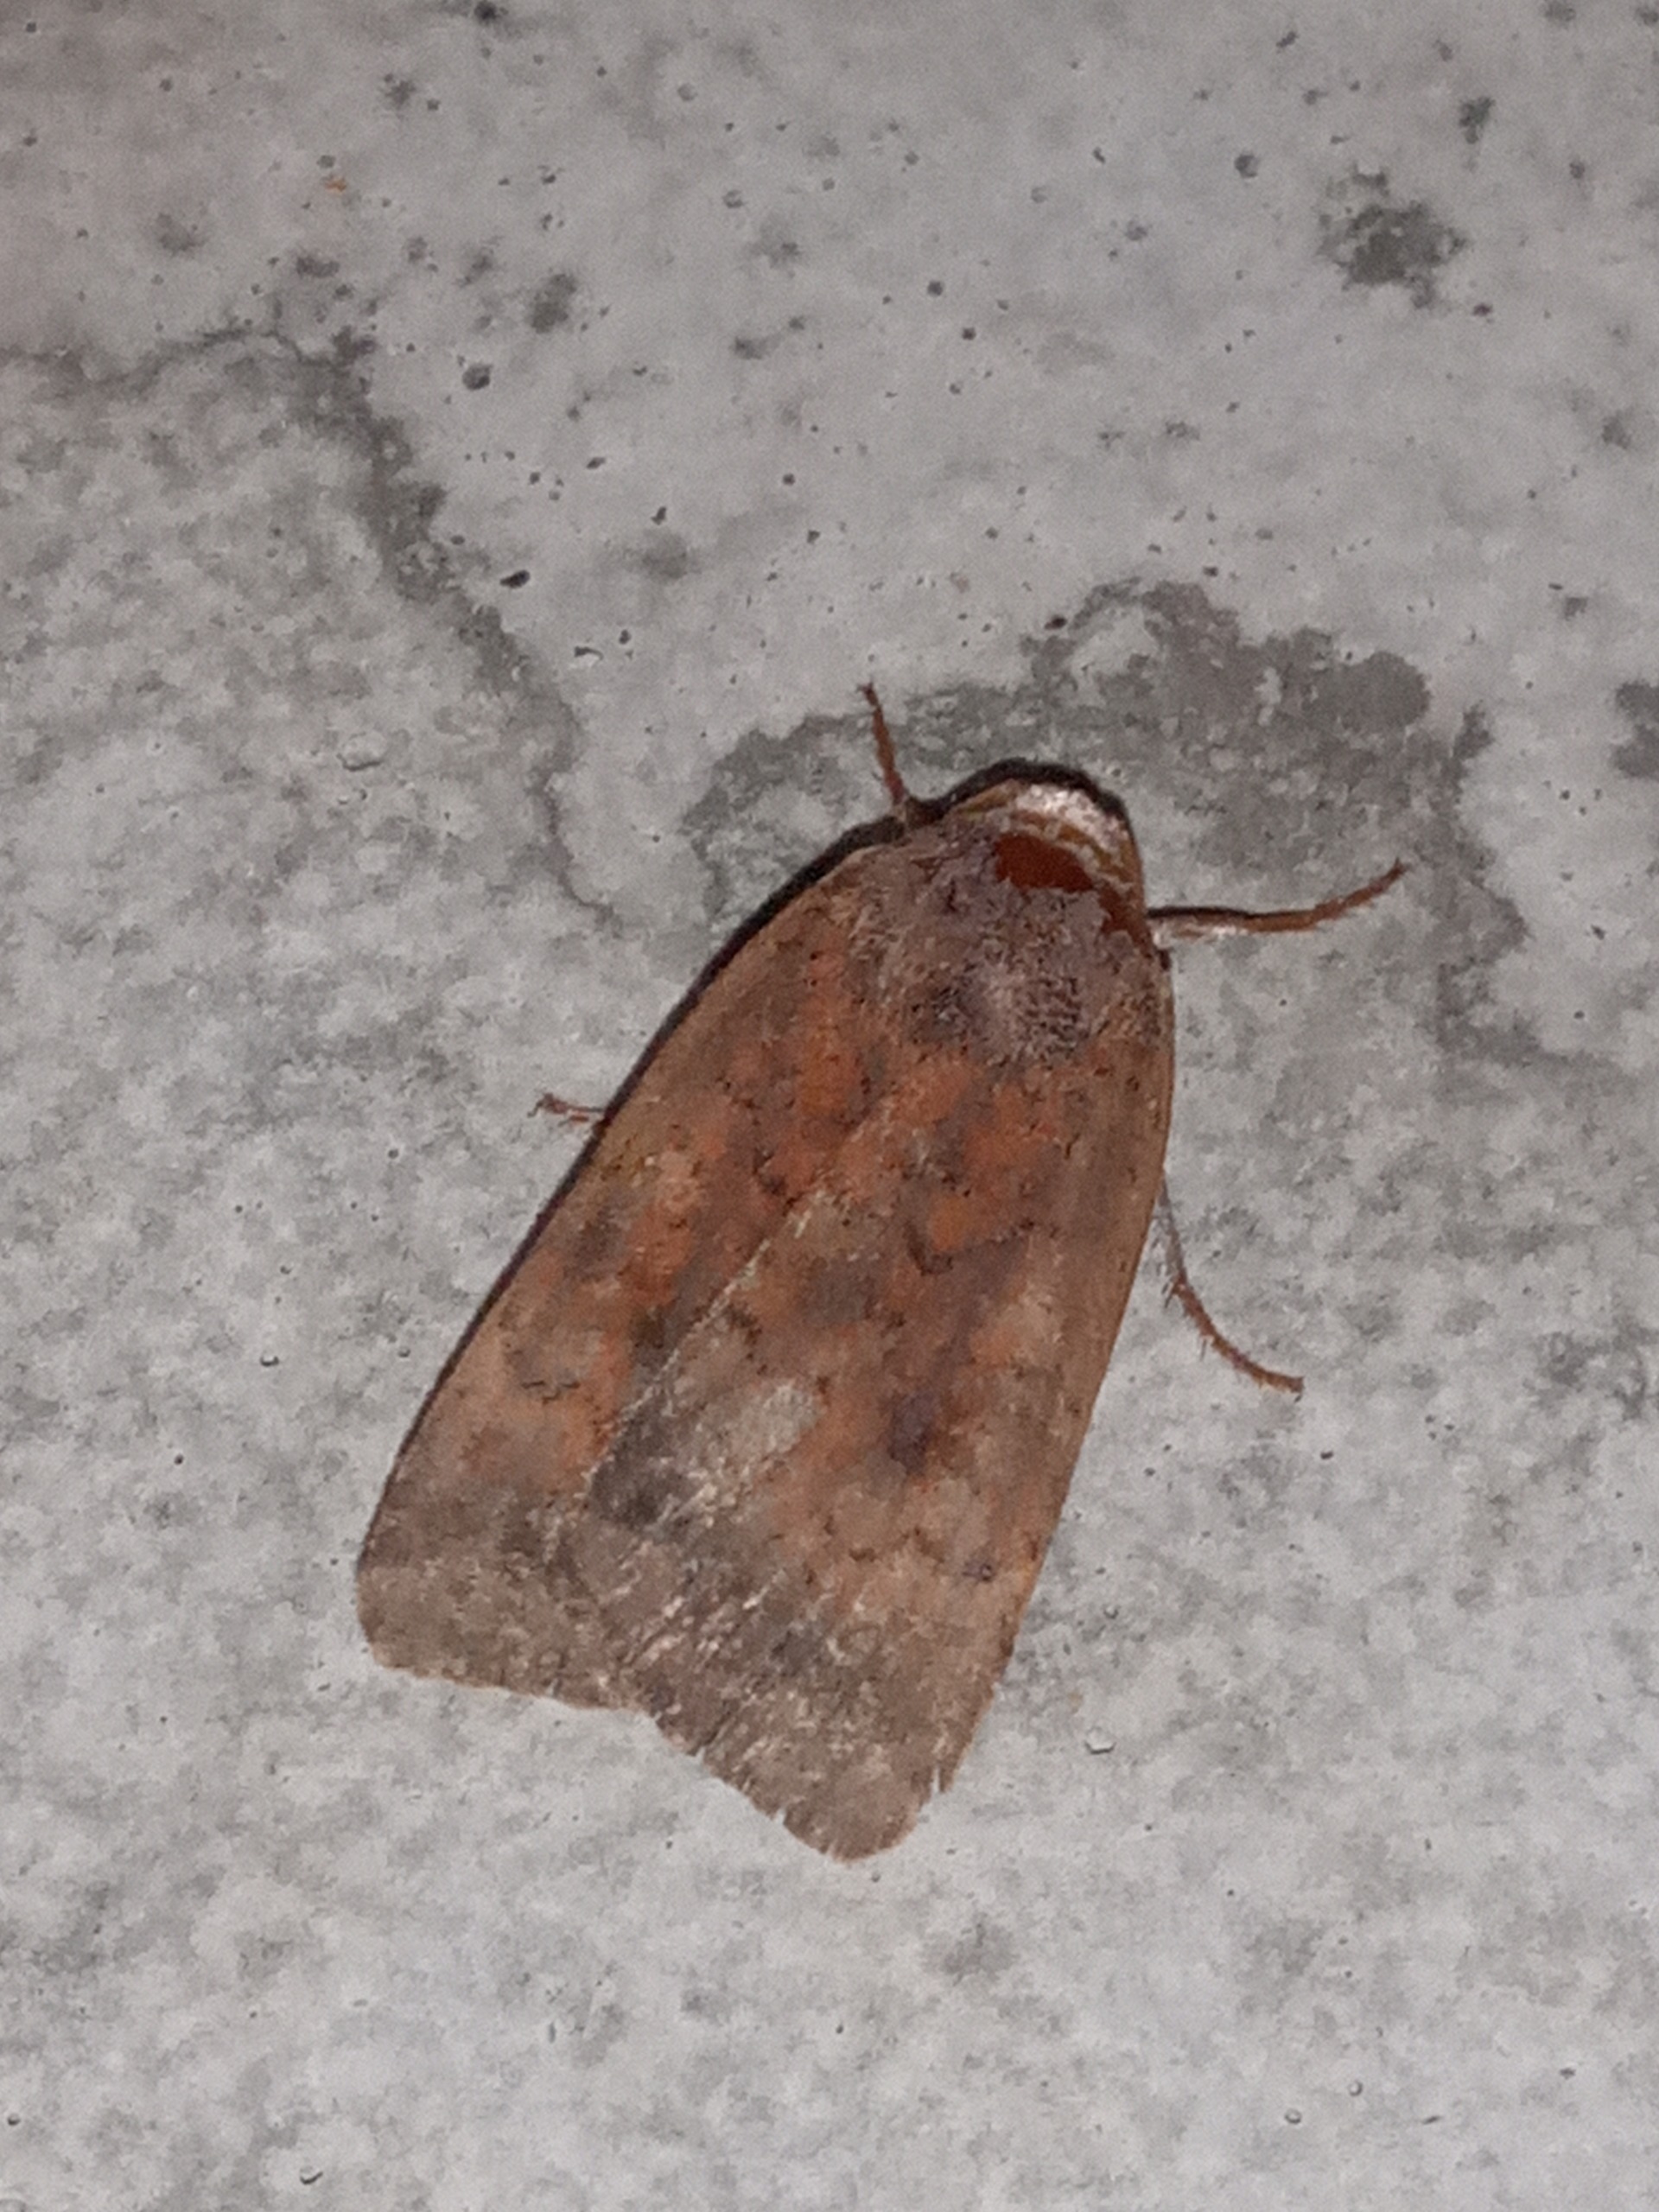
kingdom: Animalia
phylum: Arthropoda
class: Insecta
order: Lepidoptera
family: Noctuidae
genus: Noctua
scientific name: Noctua interjecta
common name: Mørksømmet smutugle
